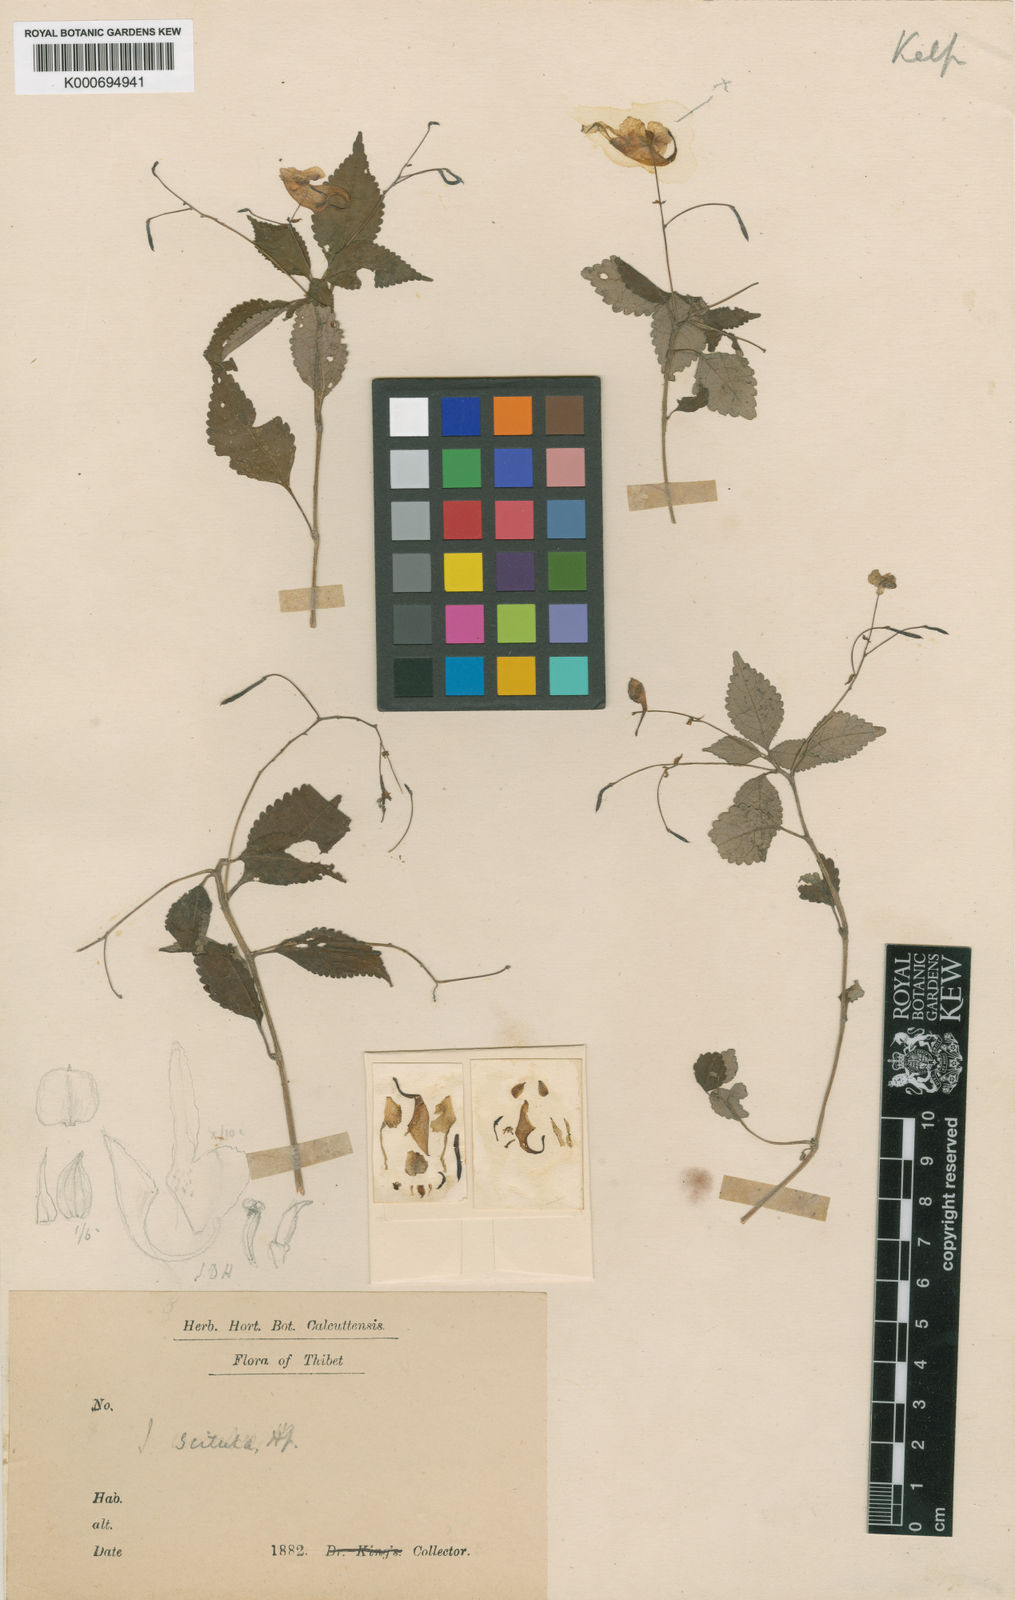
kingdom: Plantae
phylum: Tracheophyta
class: Magnoliopsida
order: Ericales
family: Balsaminaceae
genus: Impatiens
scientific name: Impatiens scitula
